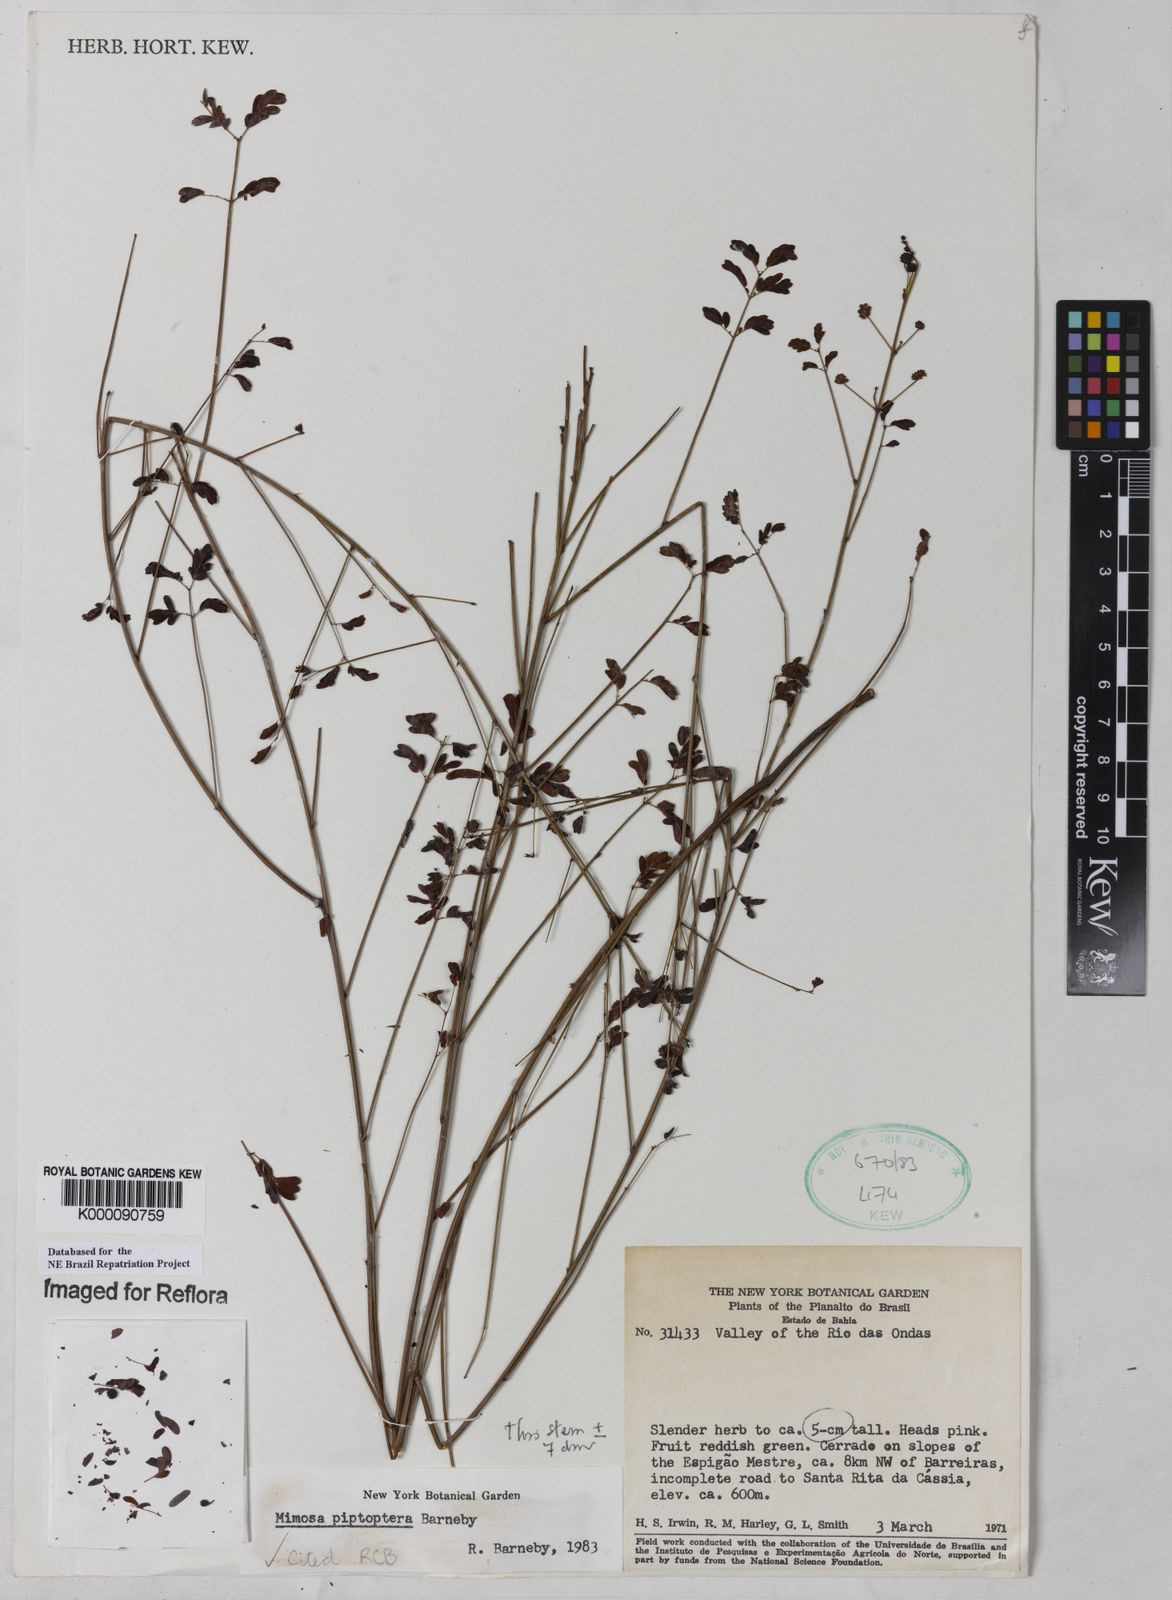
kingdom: Plantae
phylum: Tracheophyta
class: Magnoliopsida
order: Fabales
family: Fabaceae
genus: Mimosa
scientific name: Mimosa piptoptera
